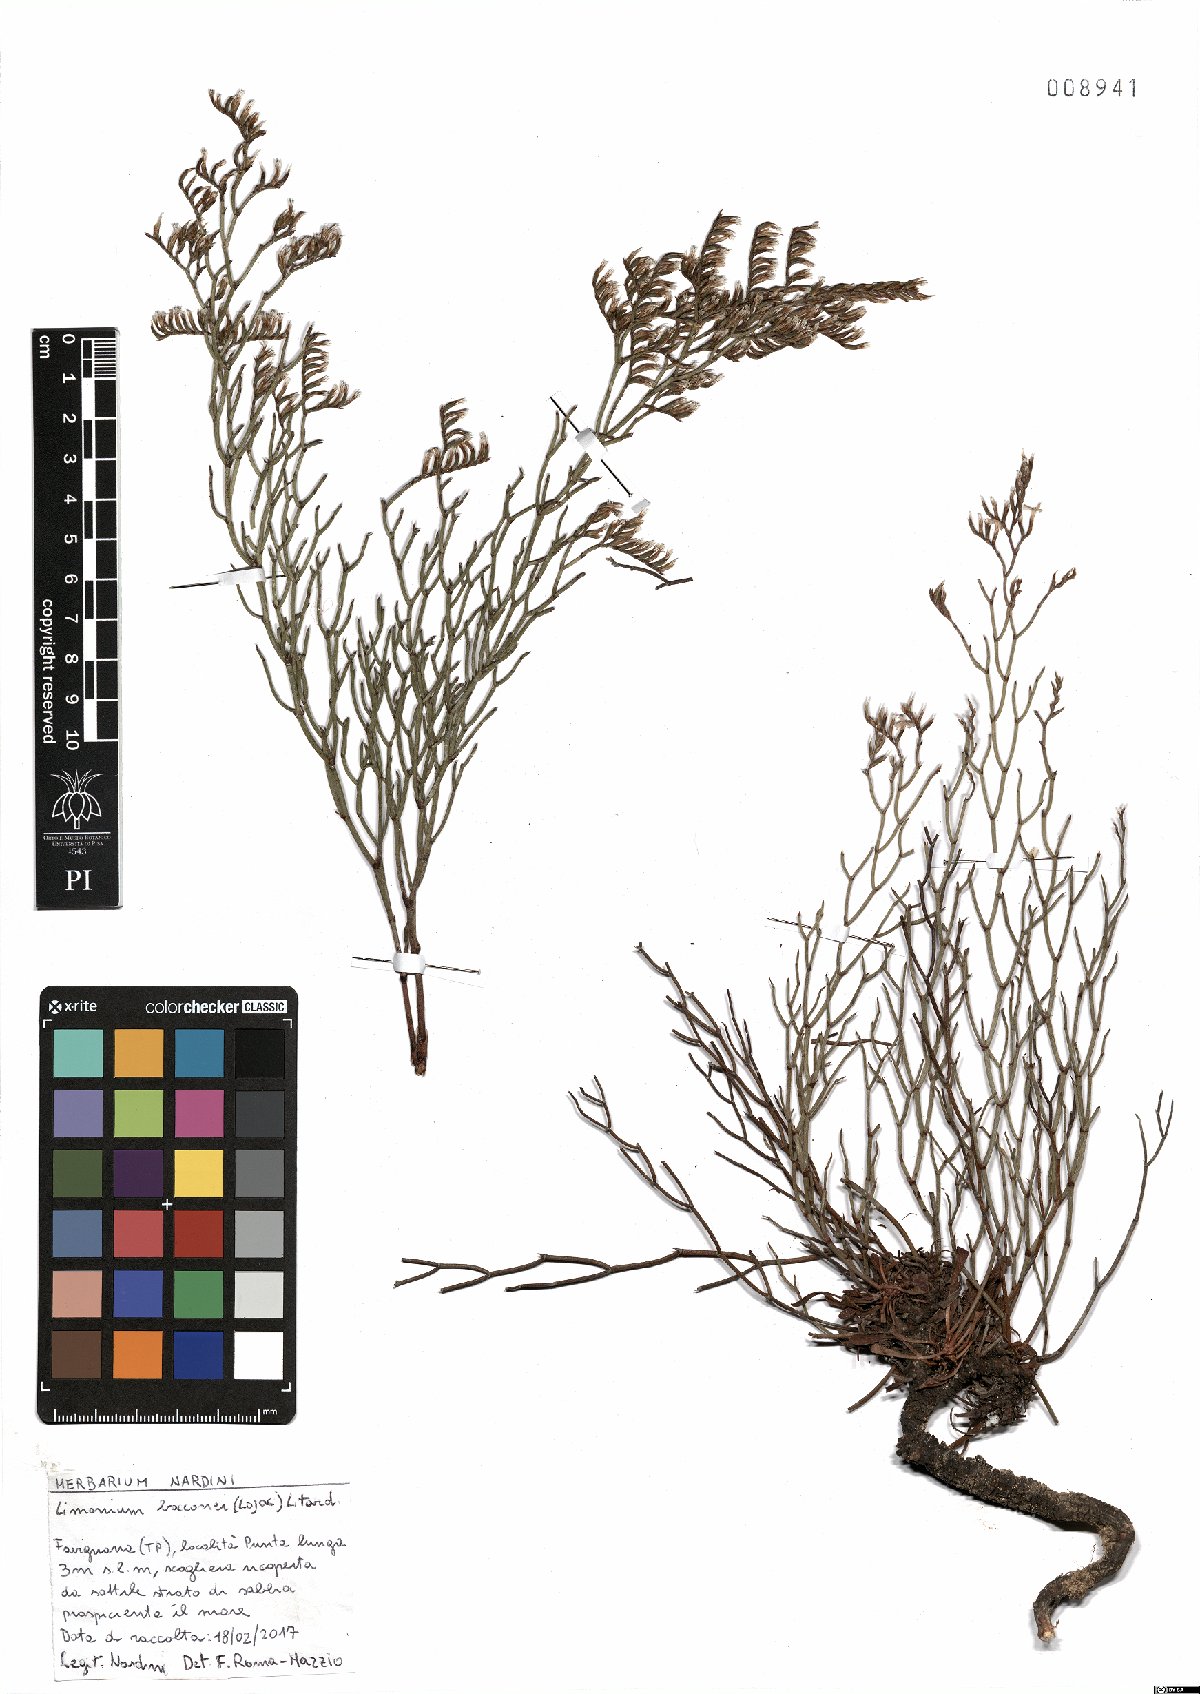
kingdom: Plantae
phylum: Tracheophyta
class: Magnoliopsida
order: Caryophyllales
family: Plumbaginaceae
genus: Limonium
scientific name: Limonium bocconei
